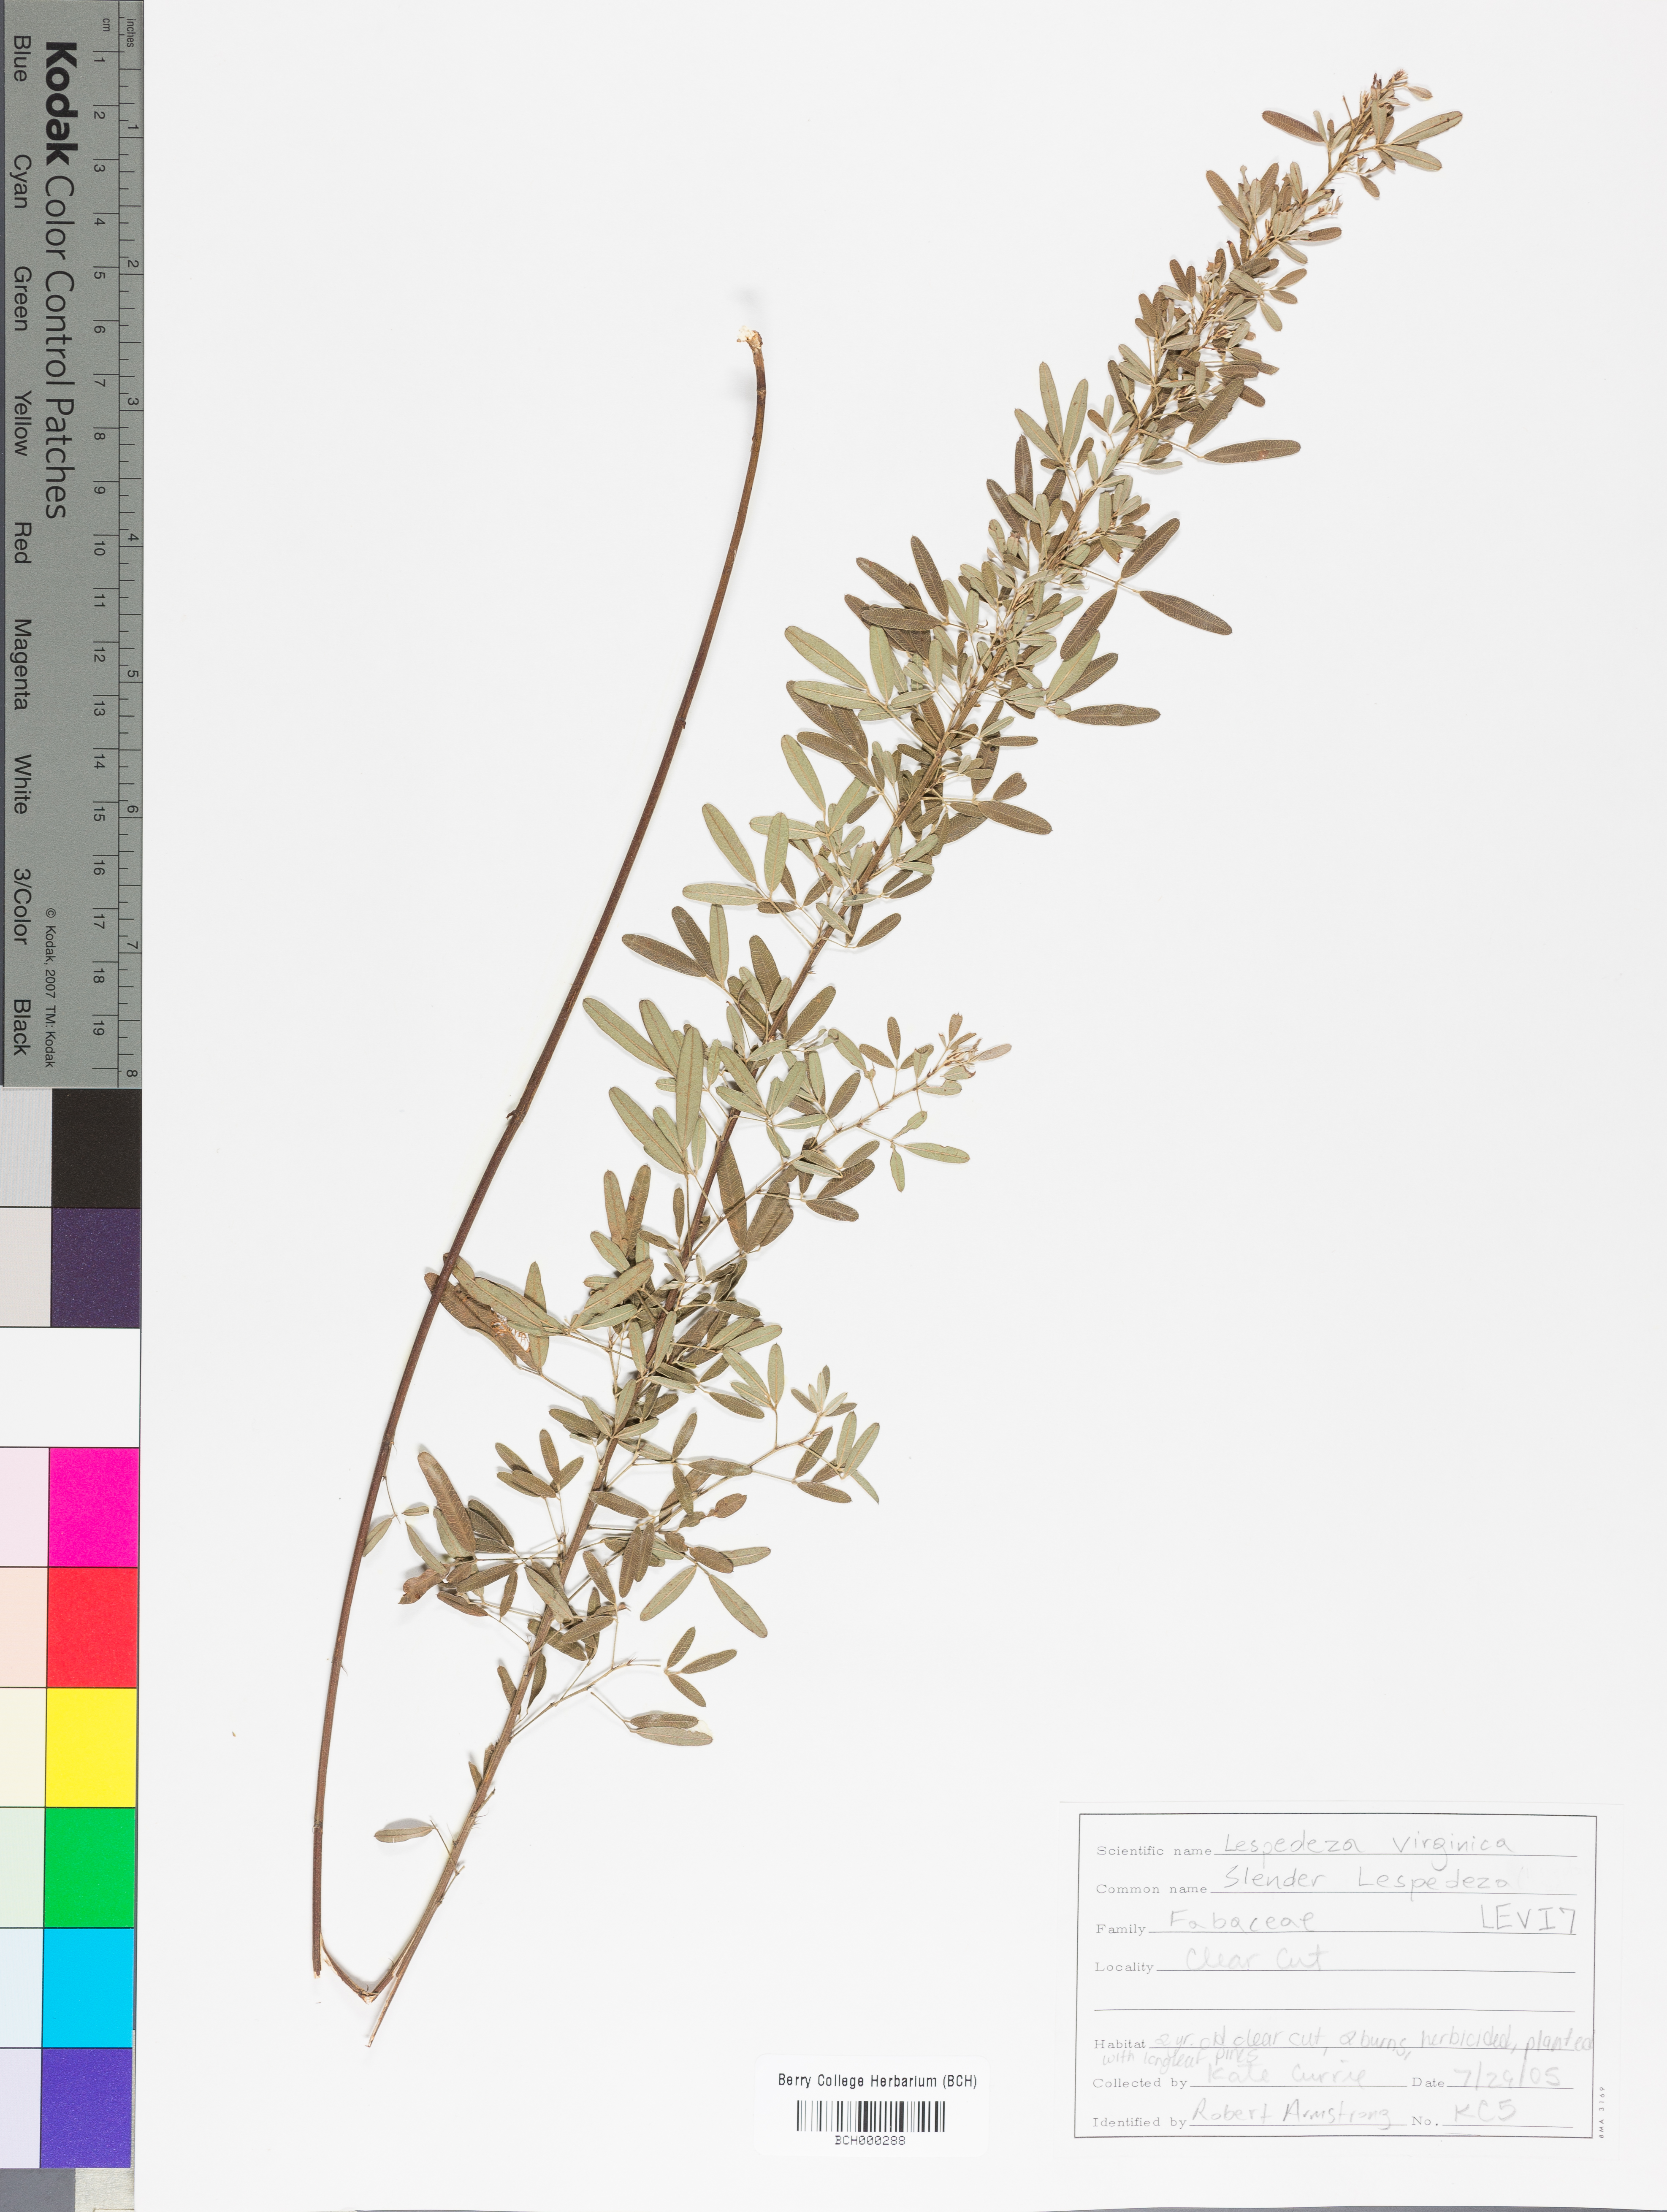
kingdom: Plantae
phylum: Tracheophyta
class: Magnoliopsida
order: Fabales
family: Fabaceae
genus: Lespedeza
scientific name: Lespedeza virginica
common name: Slender bush-clover
